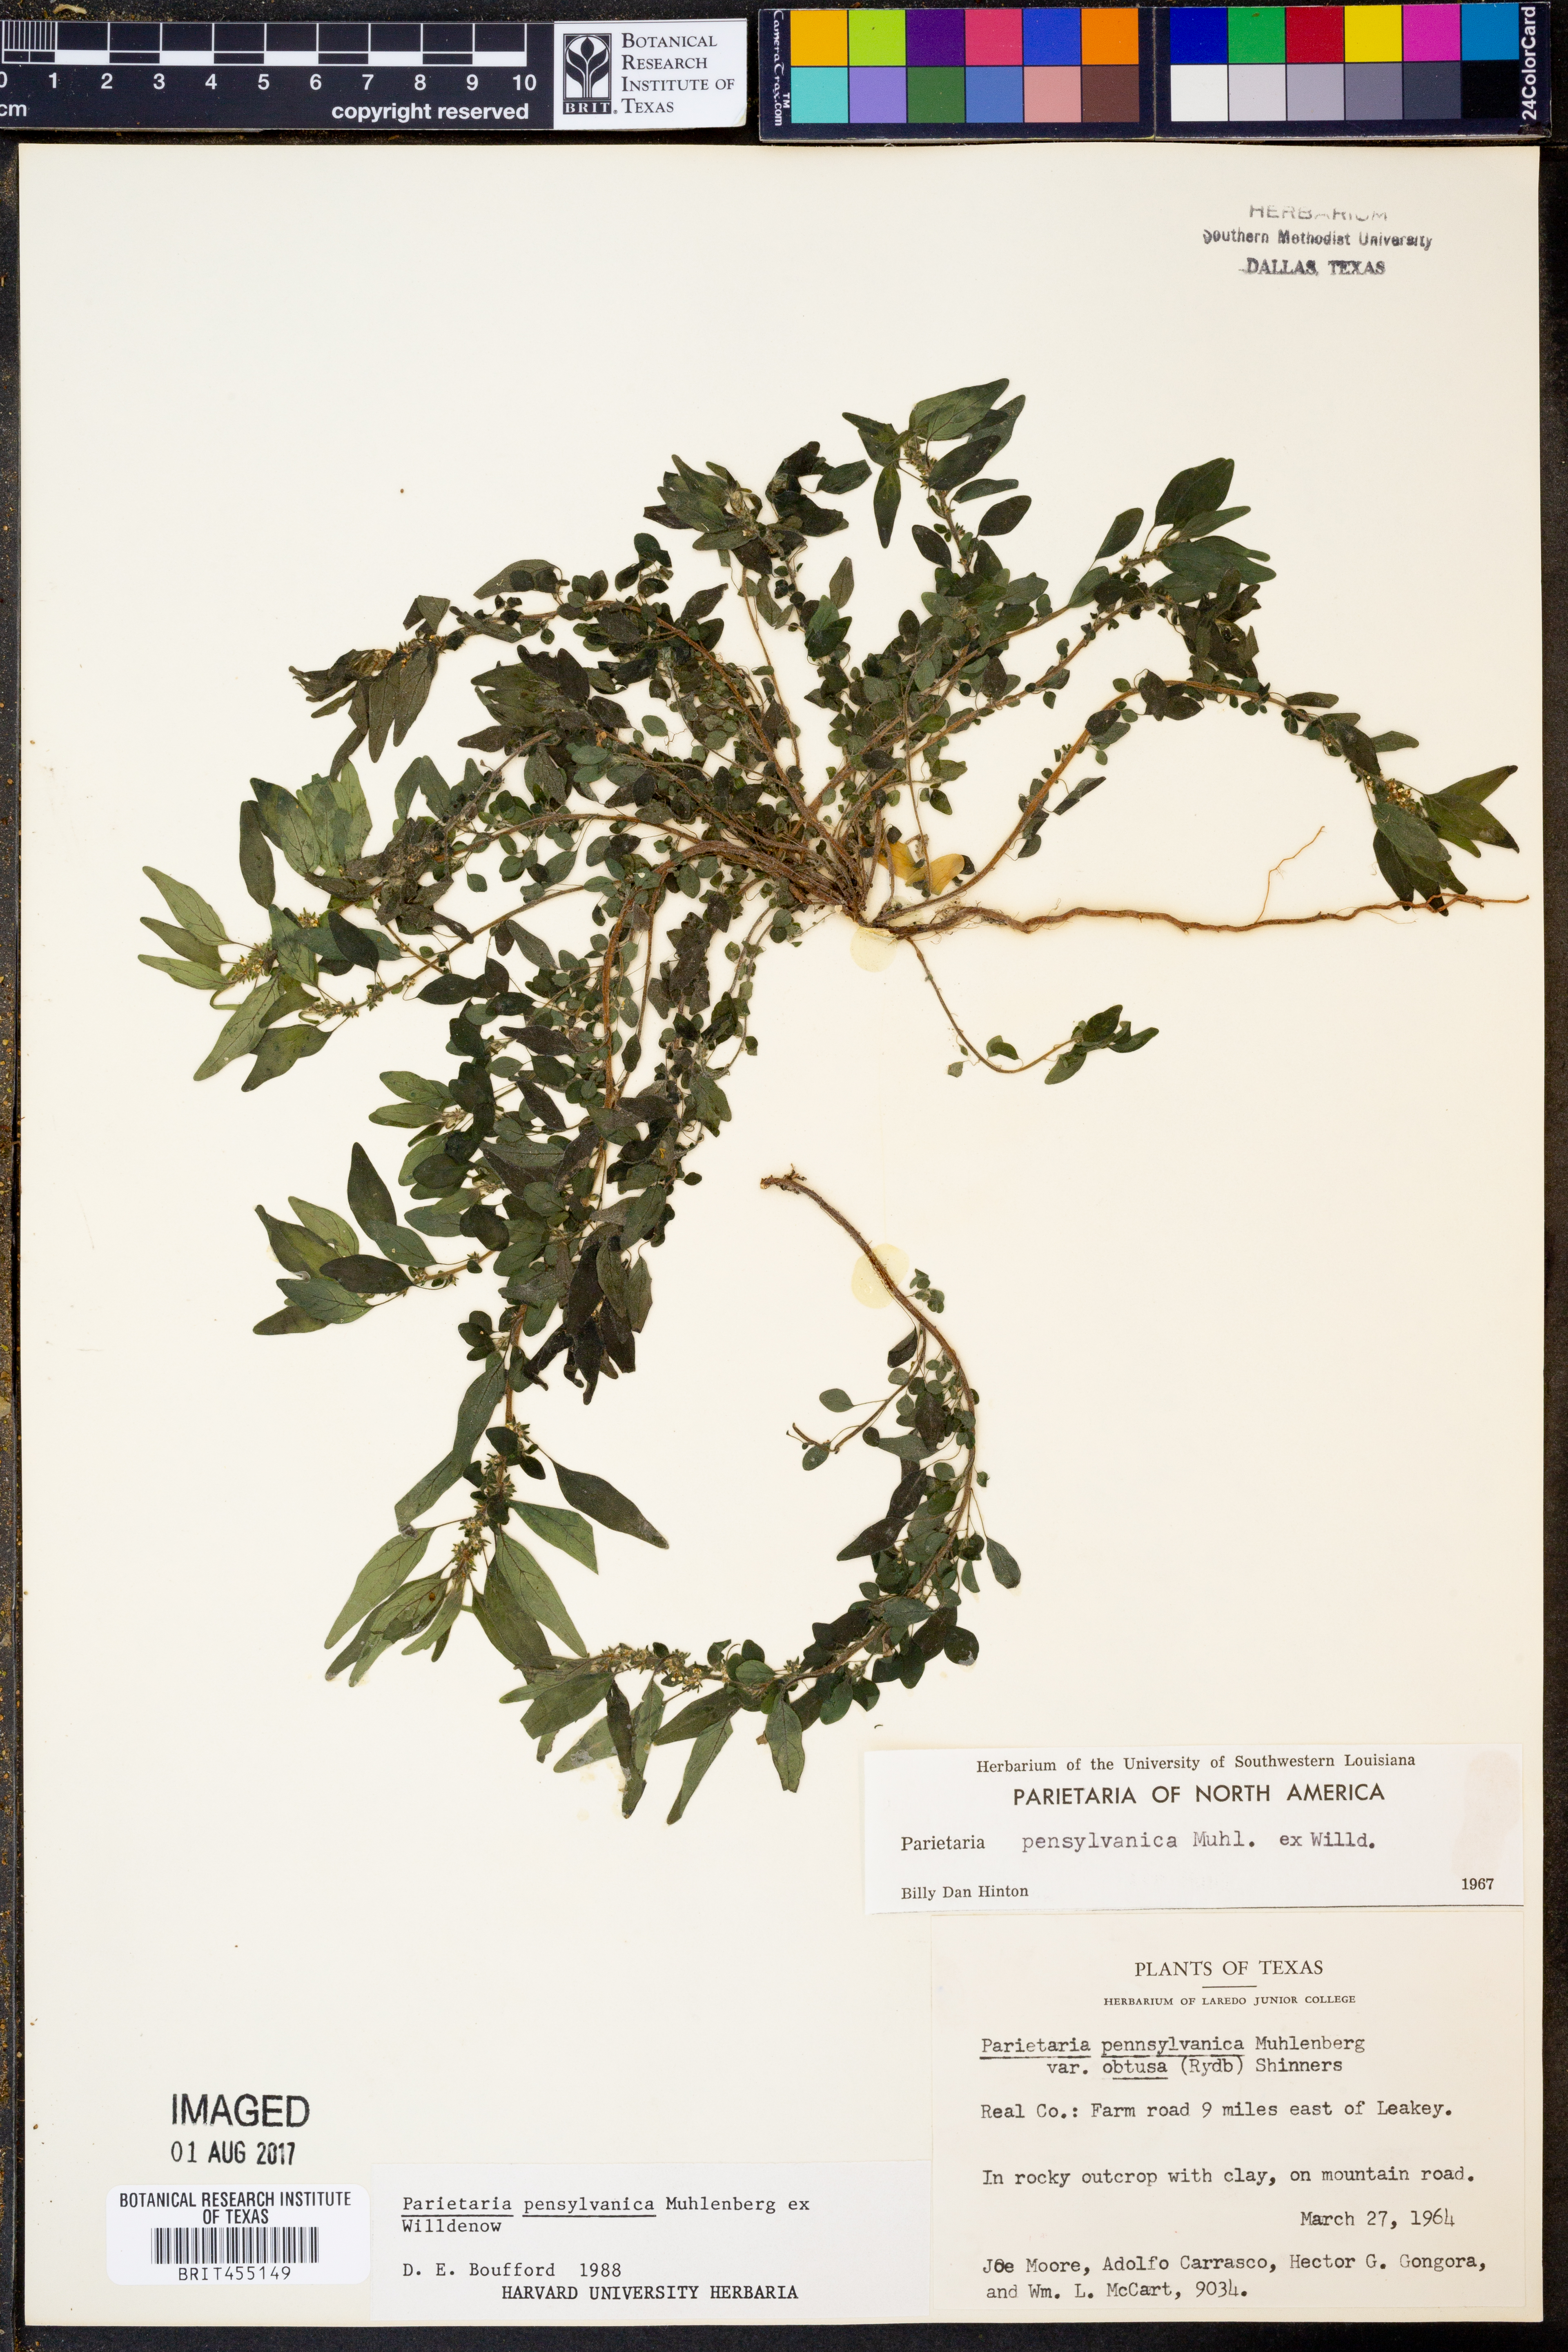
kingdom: Plantae
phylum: Tracheophyta
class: Magnoliopsida
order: Rosales
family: Urticaceae
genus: Parietaria
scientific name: Parietaria pensylvanica
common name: Pennsylvania pellitory
